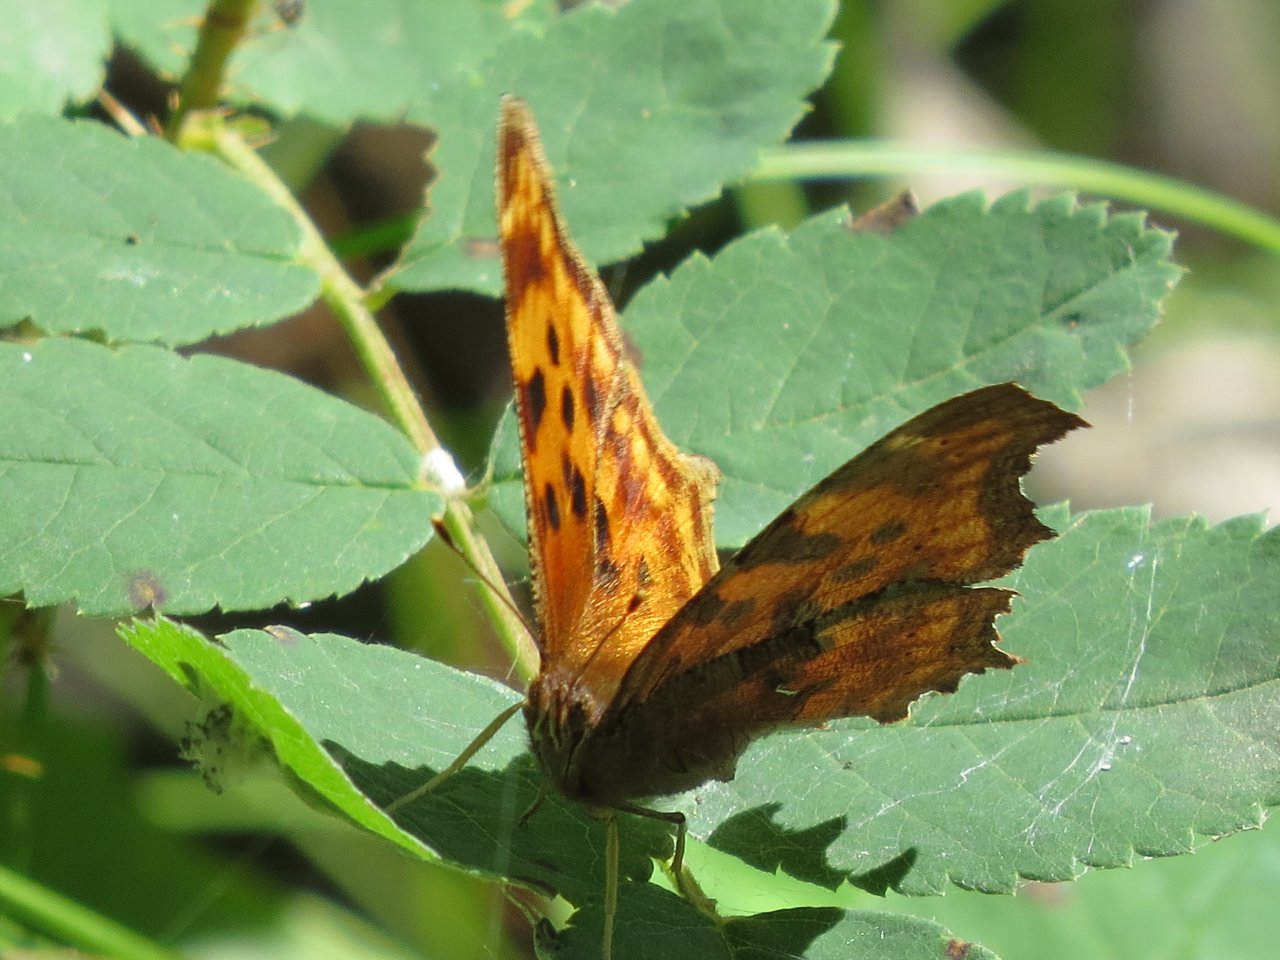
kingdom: Animalia
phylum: Arthropoda
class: Insecta
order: Lepidoptera
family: Nymphalidae
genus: Polygonia
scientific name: Polygonia satyrus
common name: Satyr Comma
